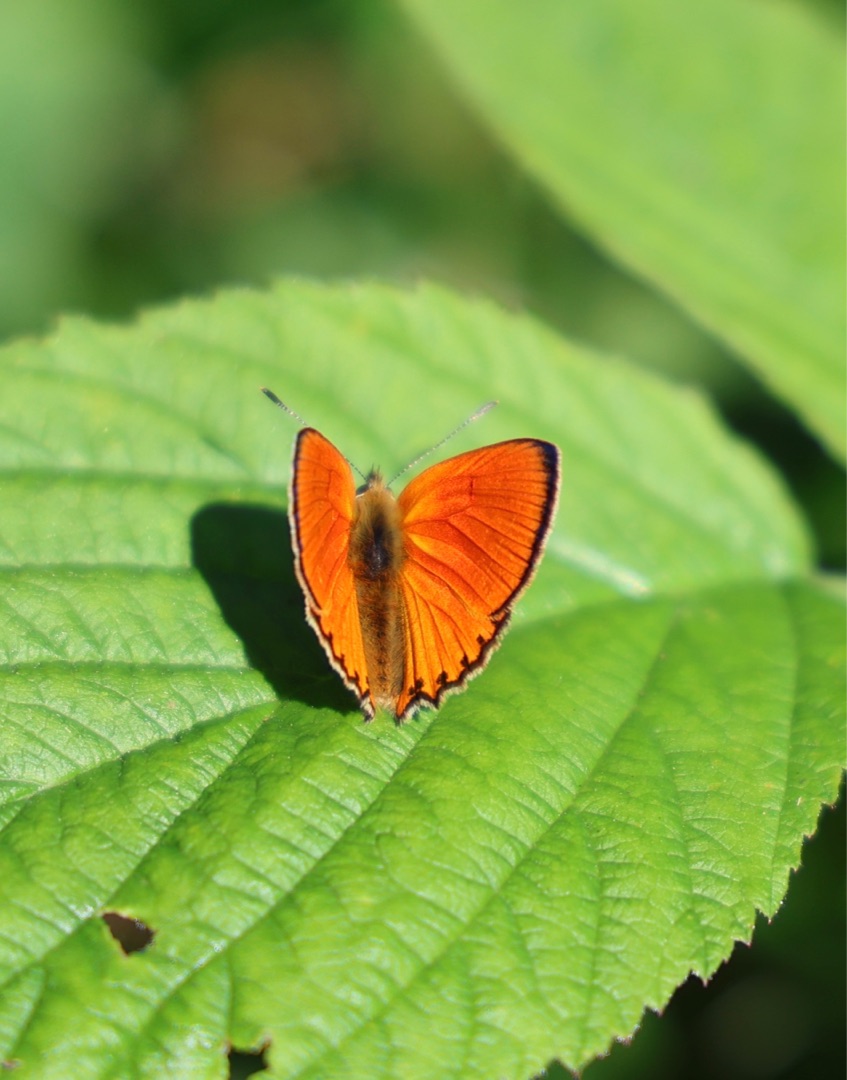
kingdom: Animalia
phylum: Arthropoda
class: Insecta
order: Lepidoptera
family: Lycaenidae
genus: Lycaena
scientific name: Lycaena virgaureae
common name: Dukatsommerfugl
